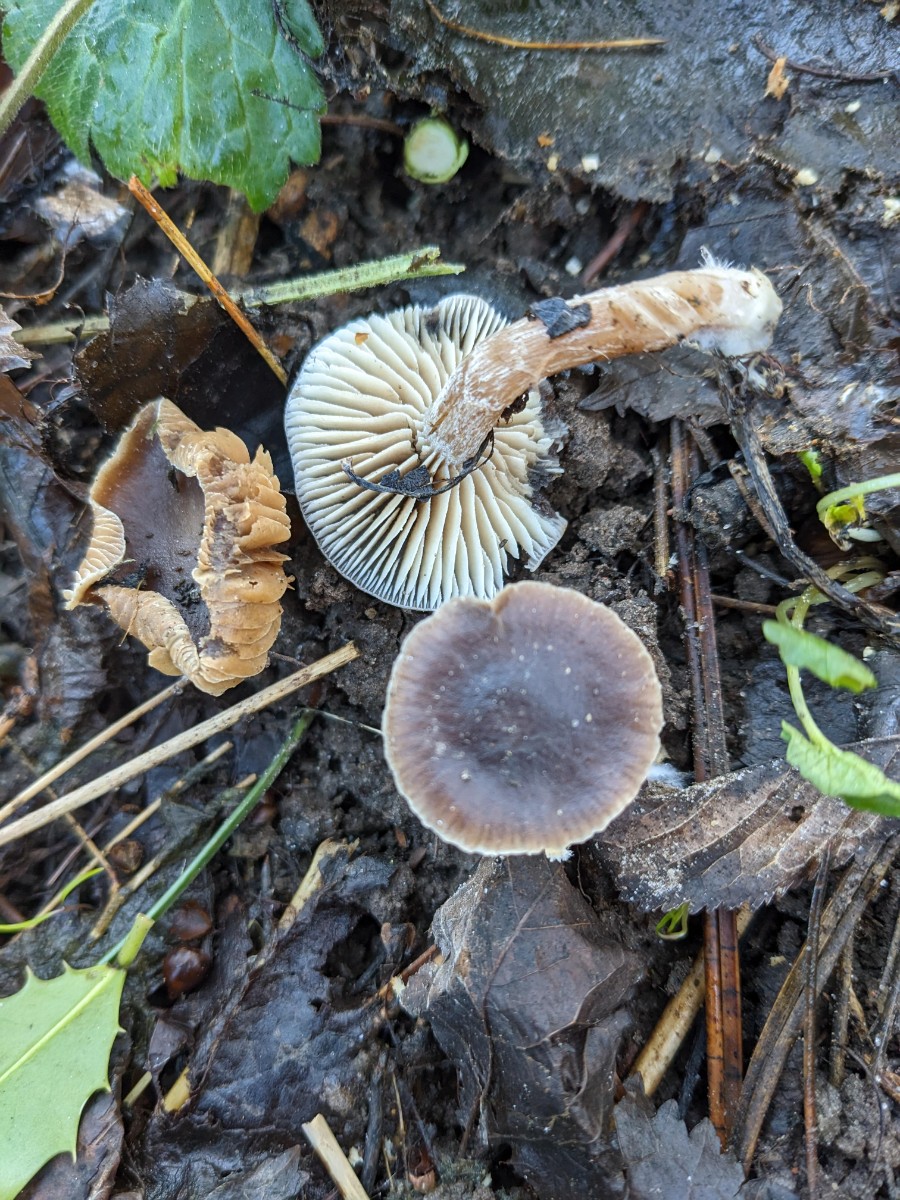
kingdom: Fungi
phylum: Basidiomycota
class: Agaricomycetes
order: Agaricales
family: Strophariaceae
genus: Meottomyces
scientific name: Meottomyces dissimulans
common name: smudsigbrun vinterskælhat
